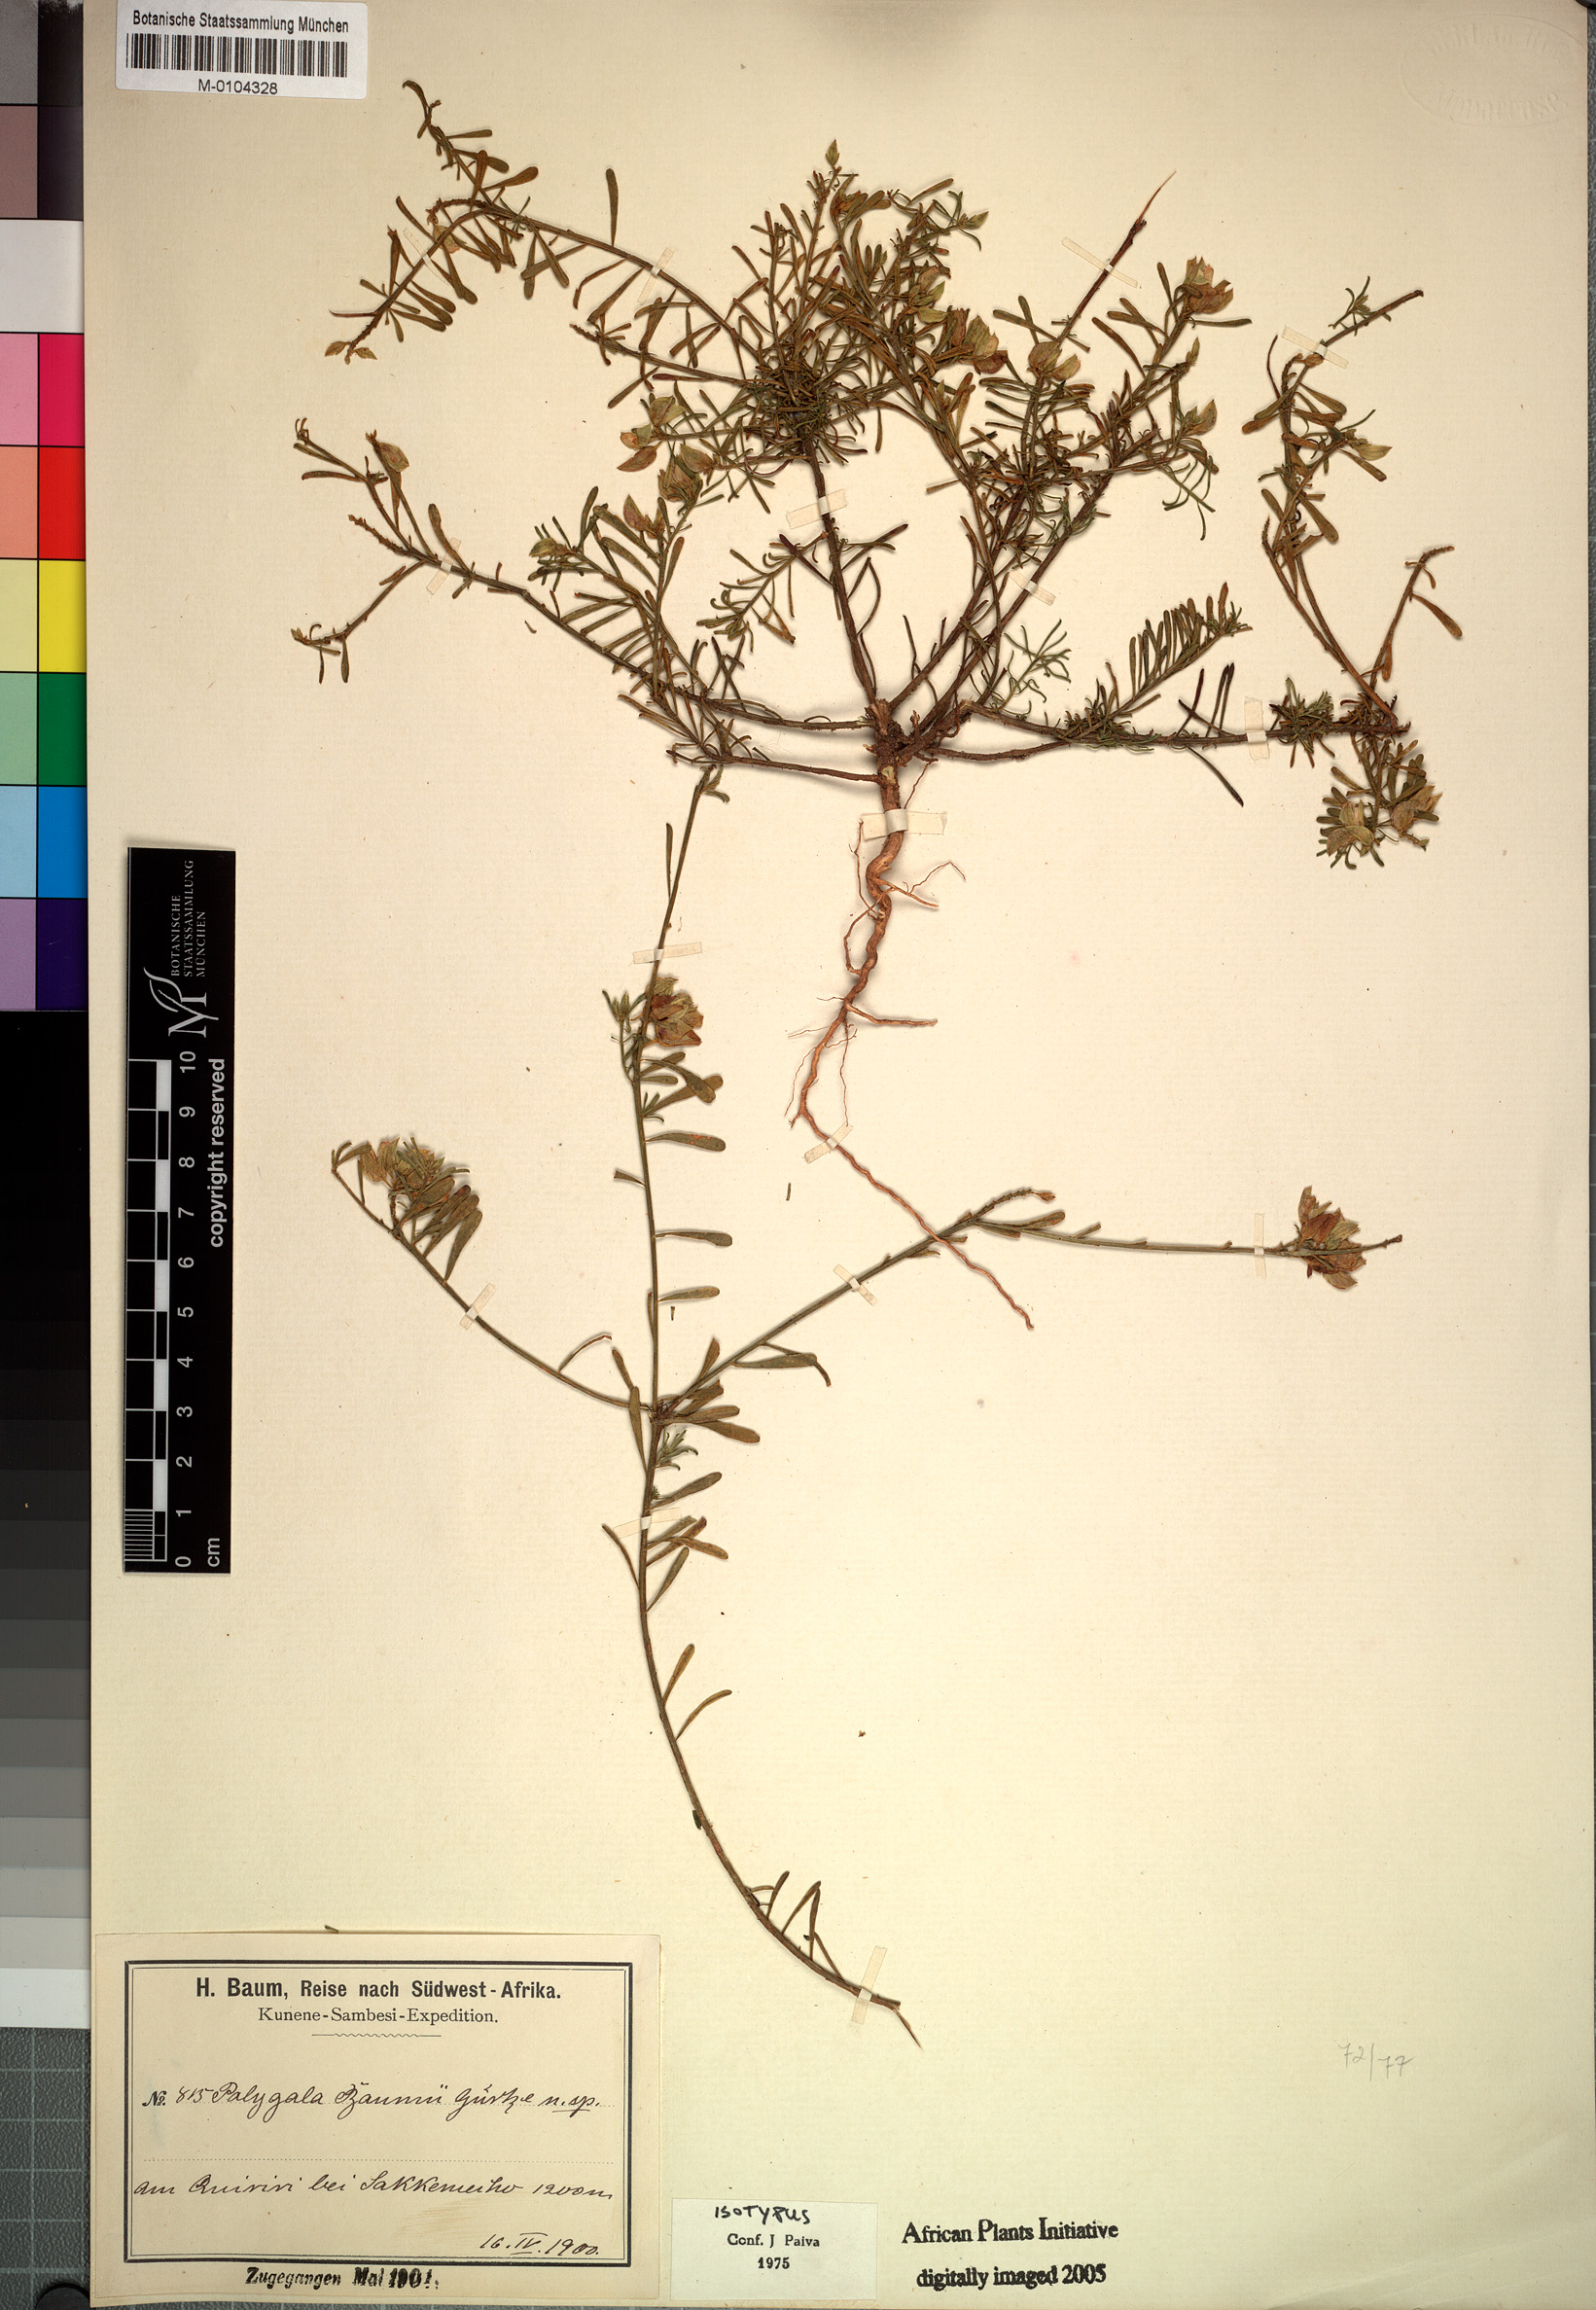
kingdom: Plantae
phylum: Tracheophyta
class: Magnoliopsida
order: Fabales
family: Polygalaceae
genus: Polygala
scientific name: Polygala baumii
